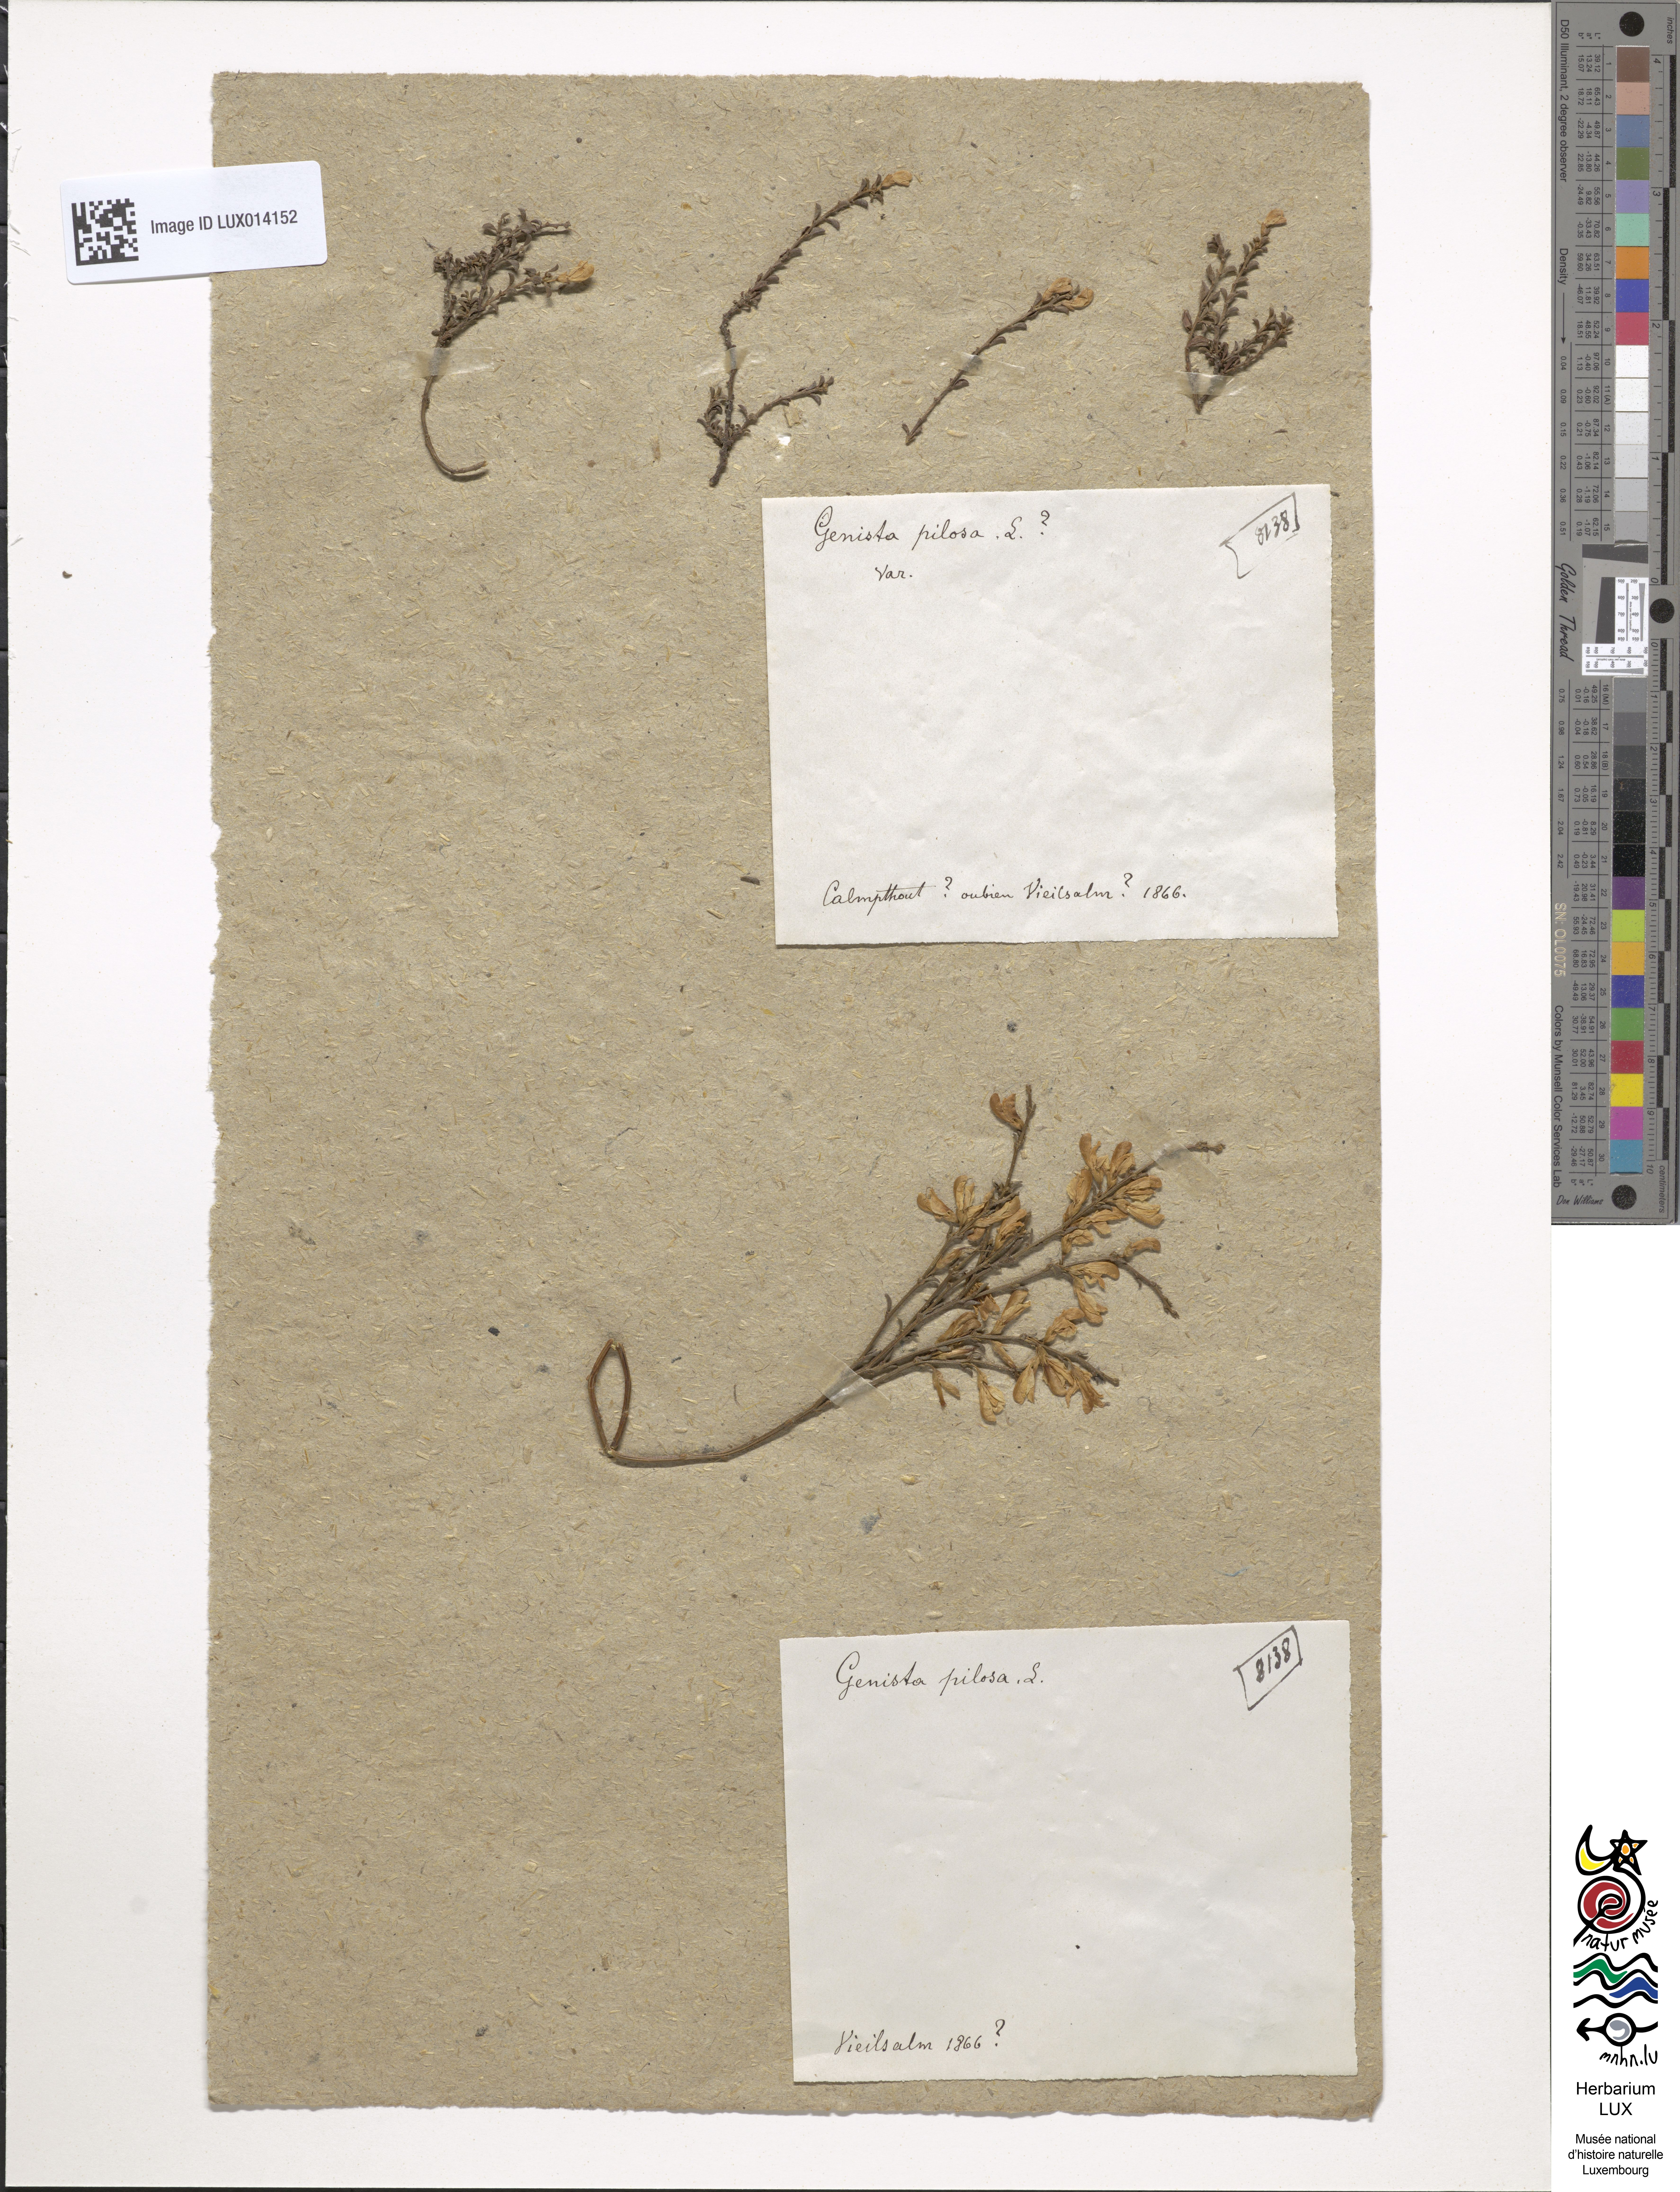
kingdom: Plantae
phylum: Tracheophyta
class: Magnoliopsida
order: Fabales
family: Fabaceae
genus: Genista
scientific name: Genista pilosa
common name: Hairy greenweed
